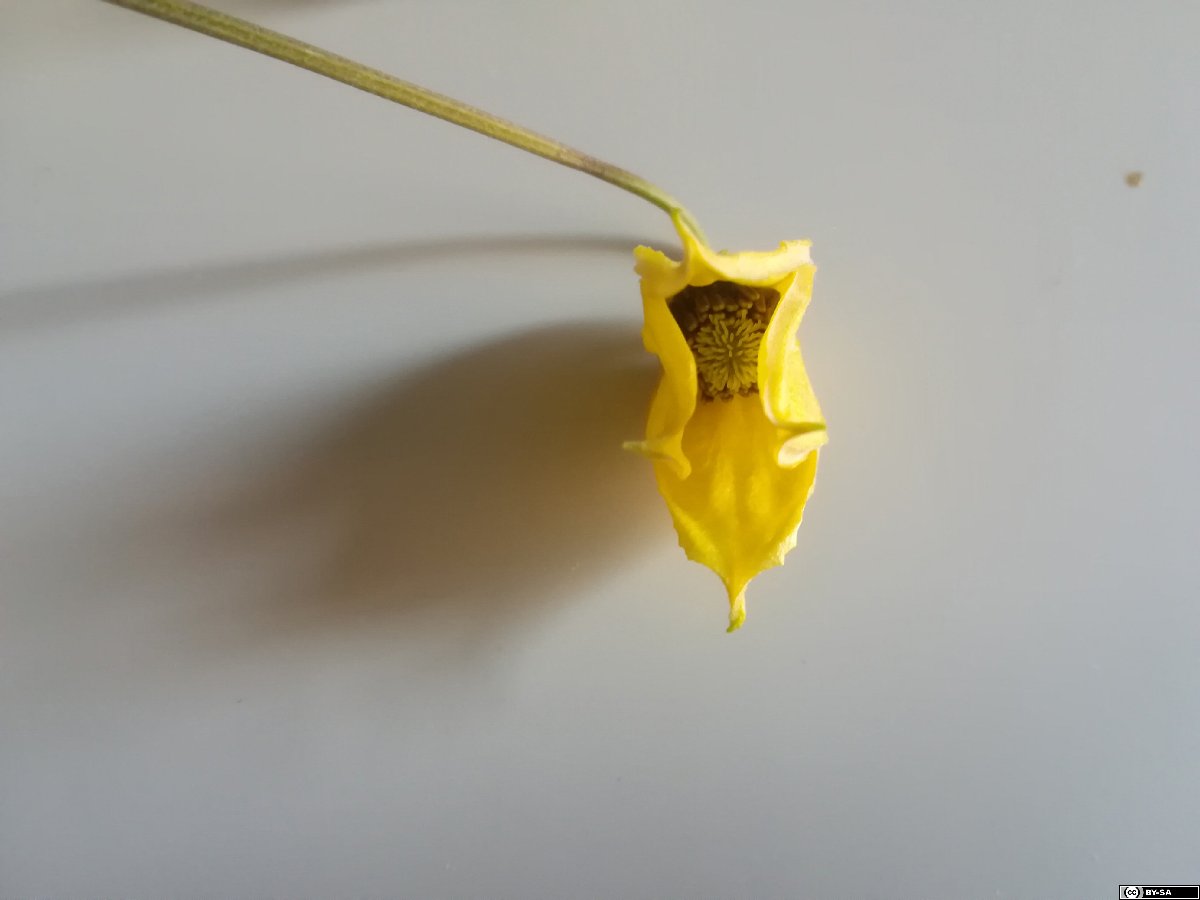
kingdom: Plantae
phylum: Tracheophyta
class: Magnoliopsida
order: Ranunculales
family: Ranunculaceae
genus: Clematis
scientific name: Clematis tangutica
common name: Orange-peel clematis
